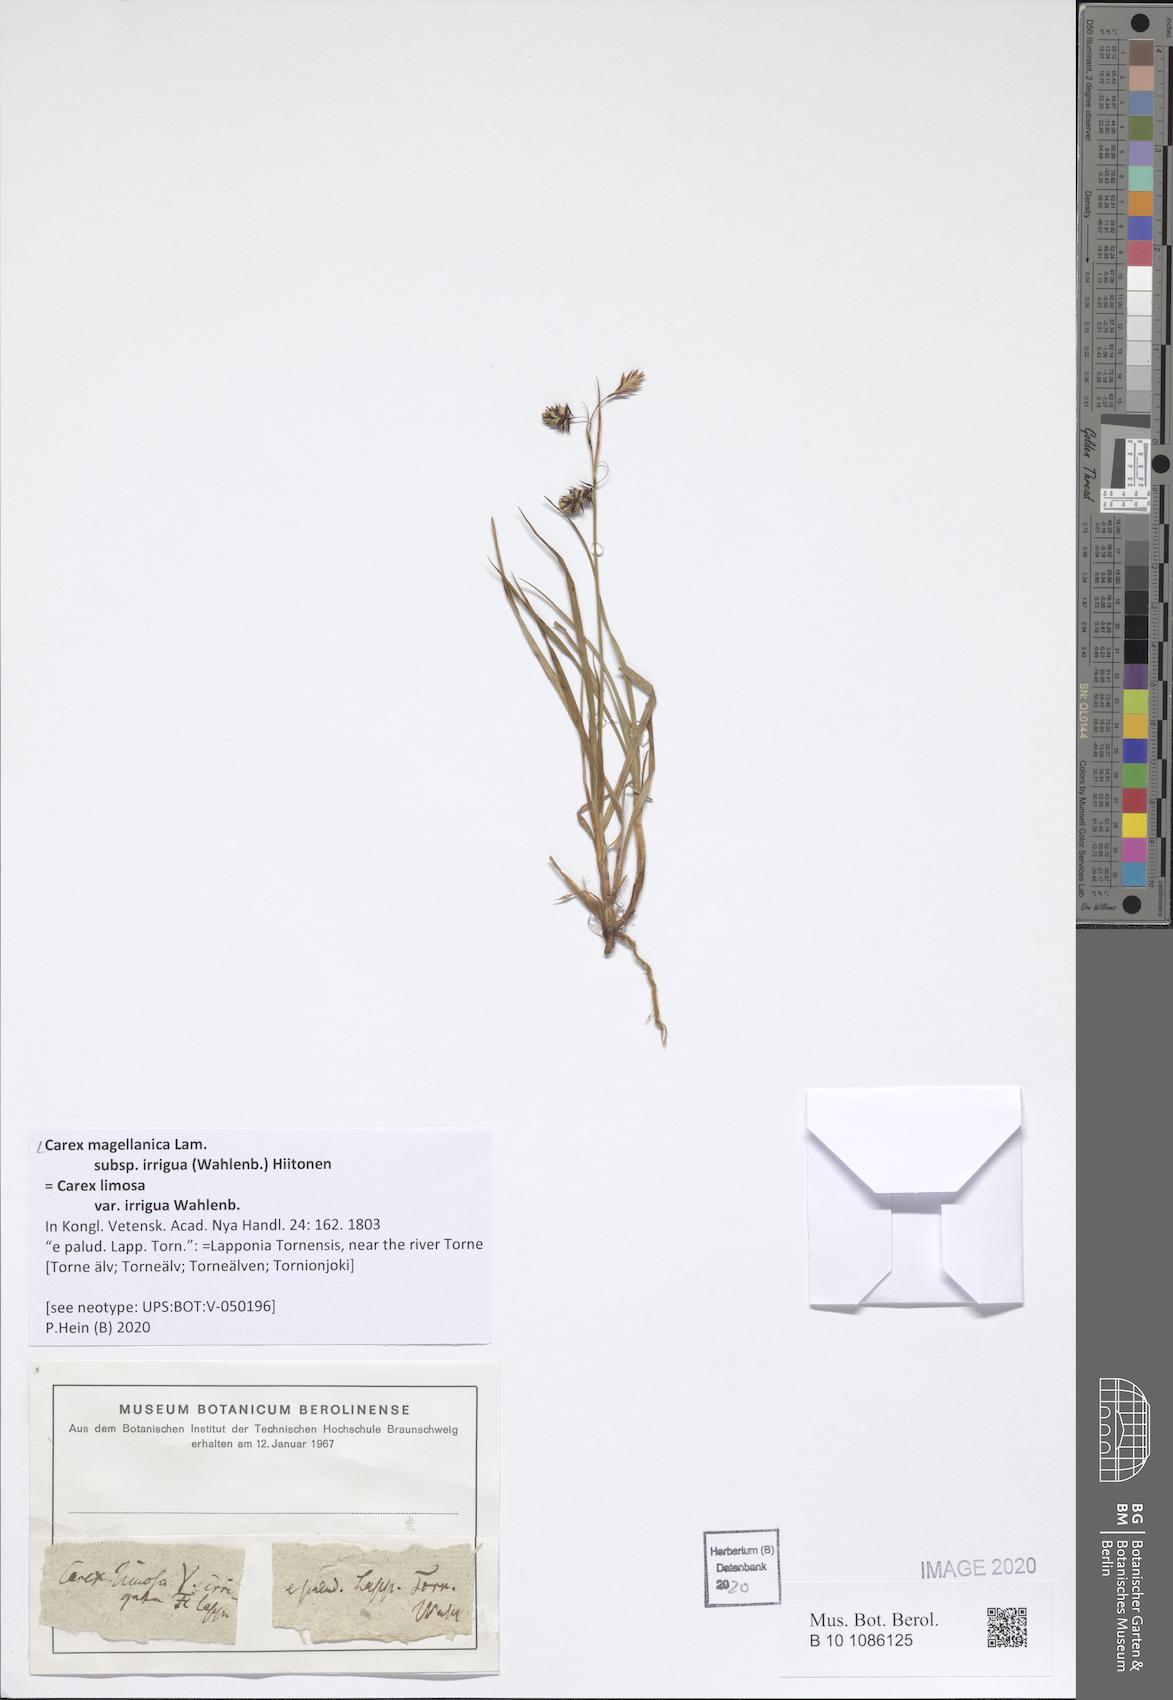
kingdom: Plantae
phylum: Tracheophyta
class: Liliopsida
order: Poales
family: Cyperaceae
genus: Carex
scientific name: Carex magellanica
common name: Bog sedge
